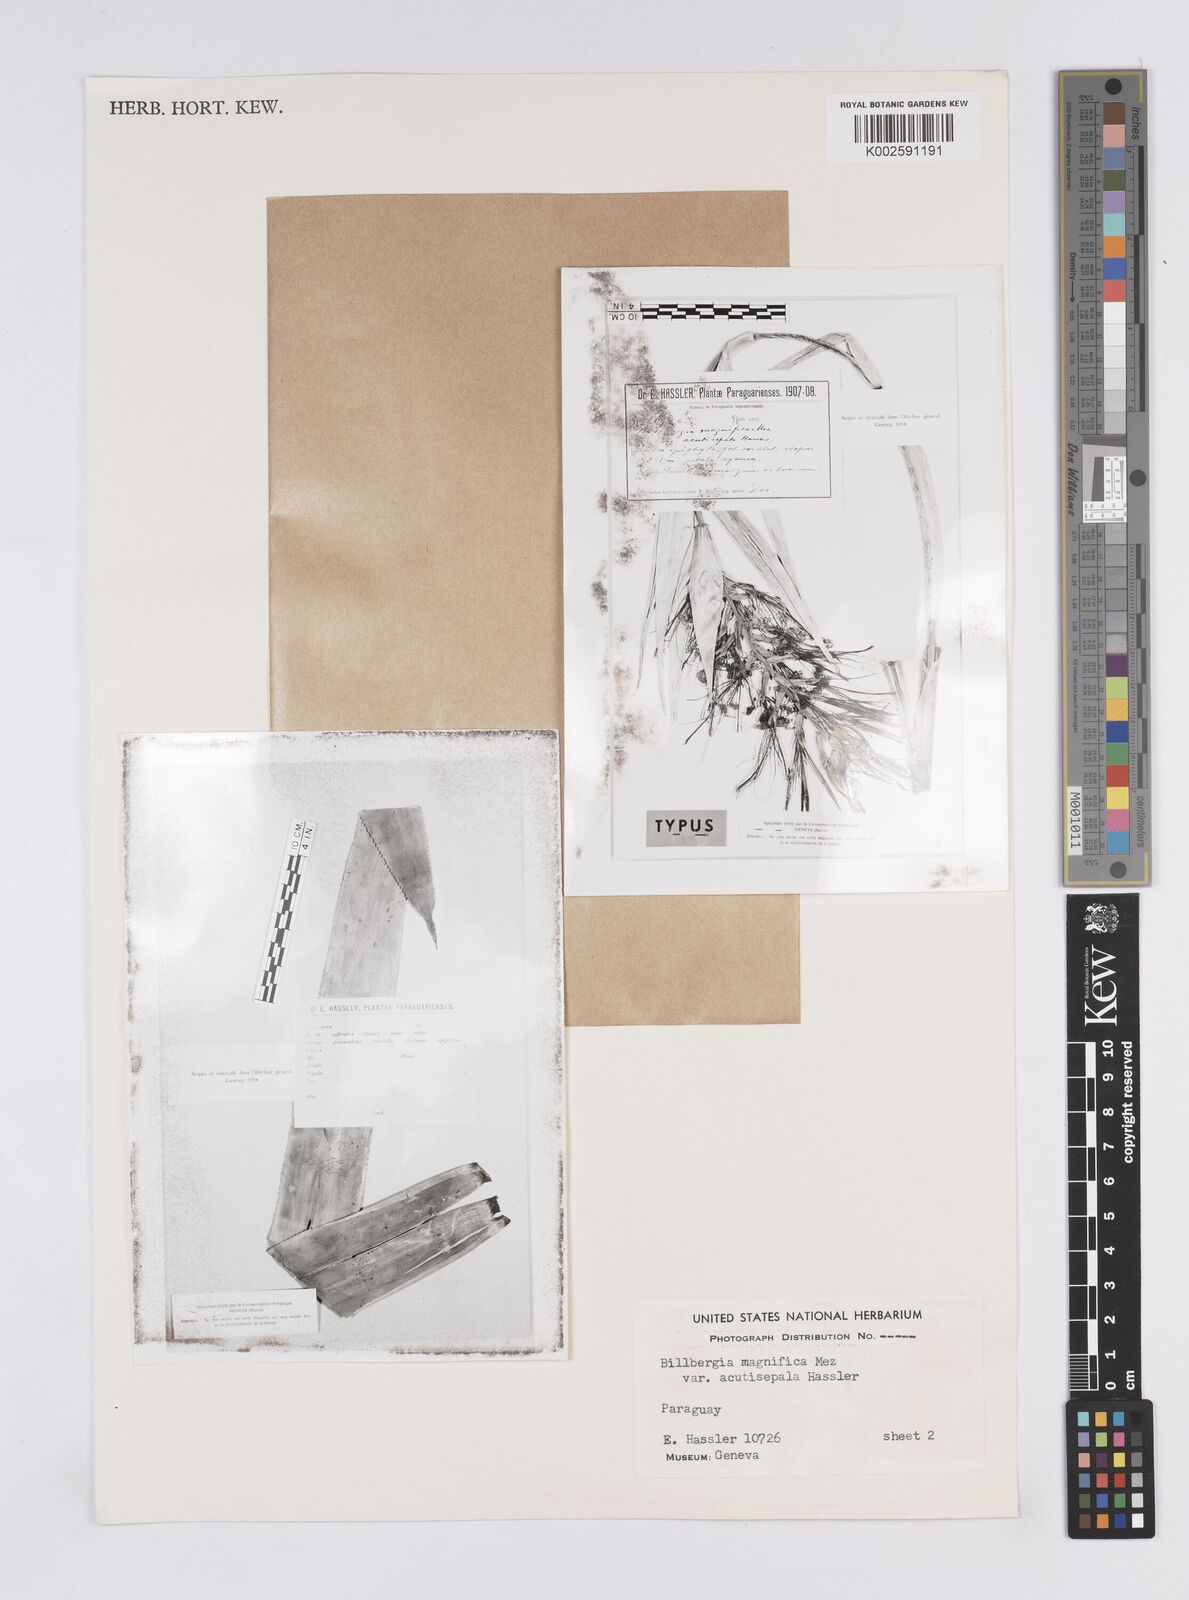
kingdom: Plantae
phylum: Tracheophyta
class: Liliopsida
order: Poales
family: Bromeliaceae
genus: Billbergia
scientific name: Billbergia magnifica
